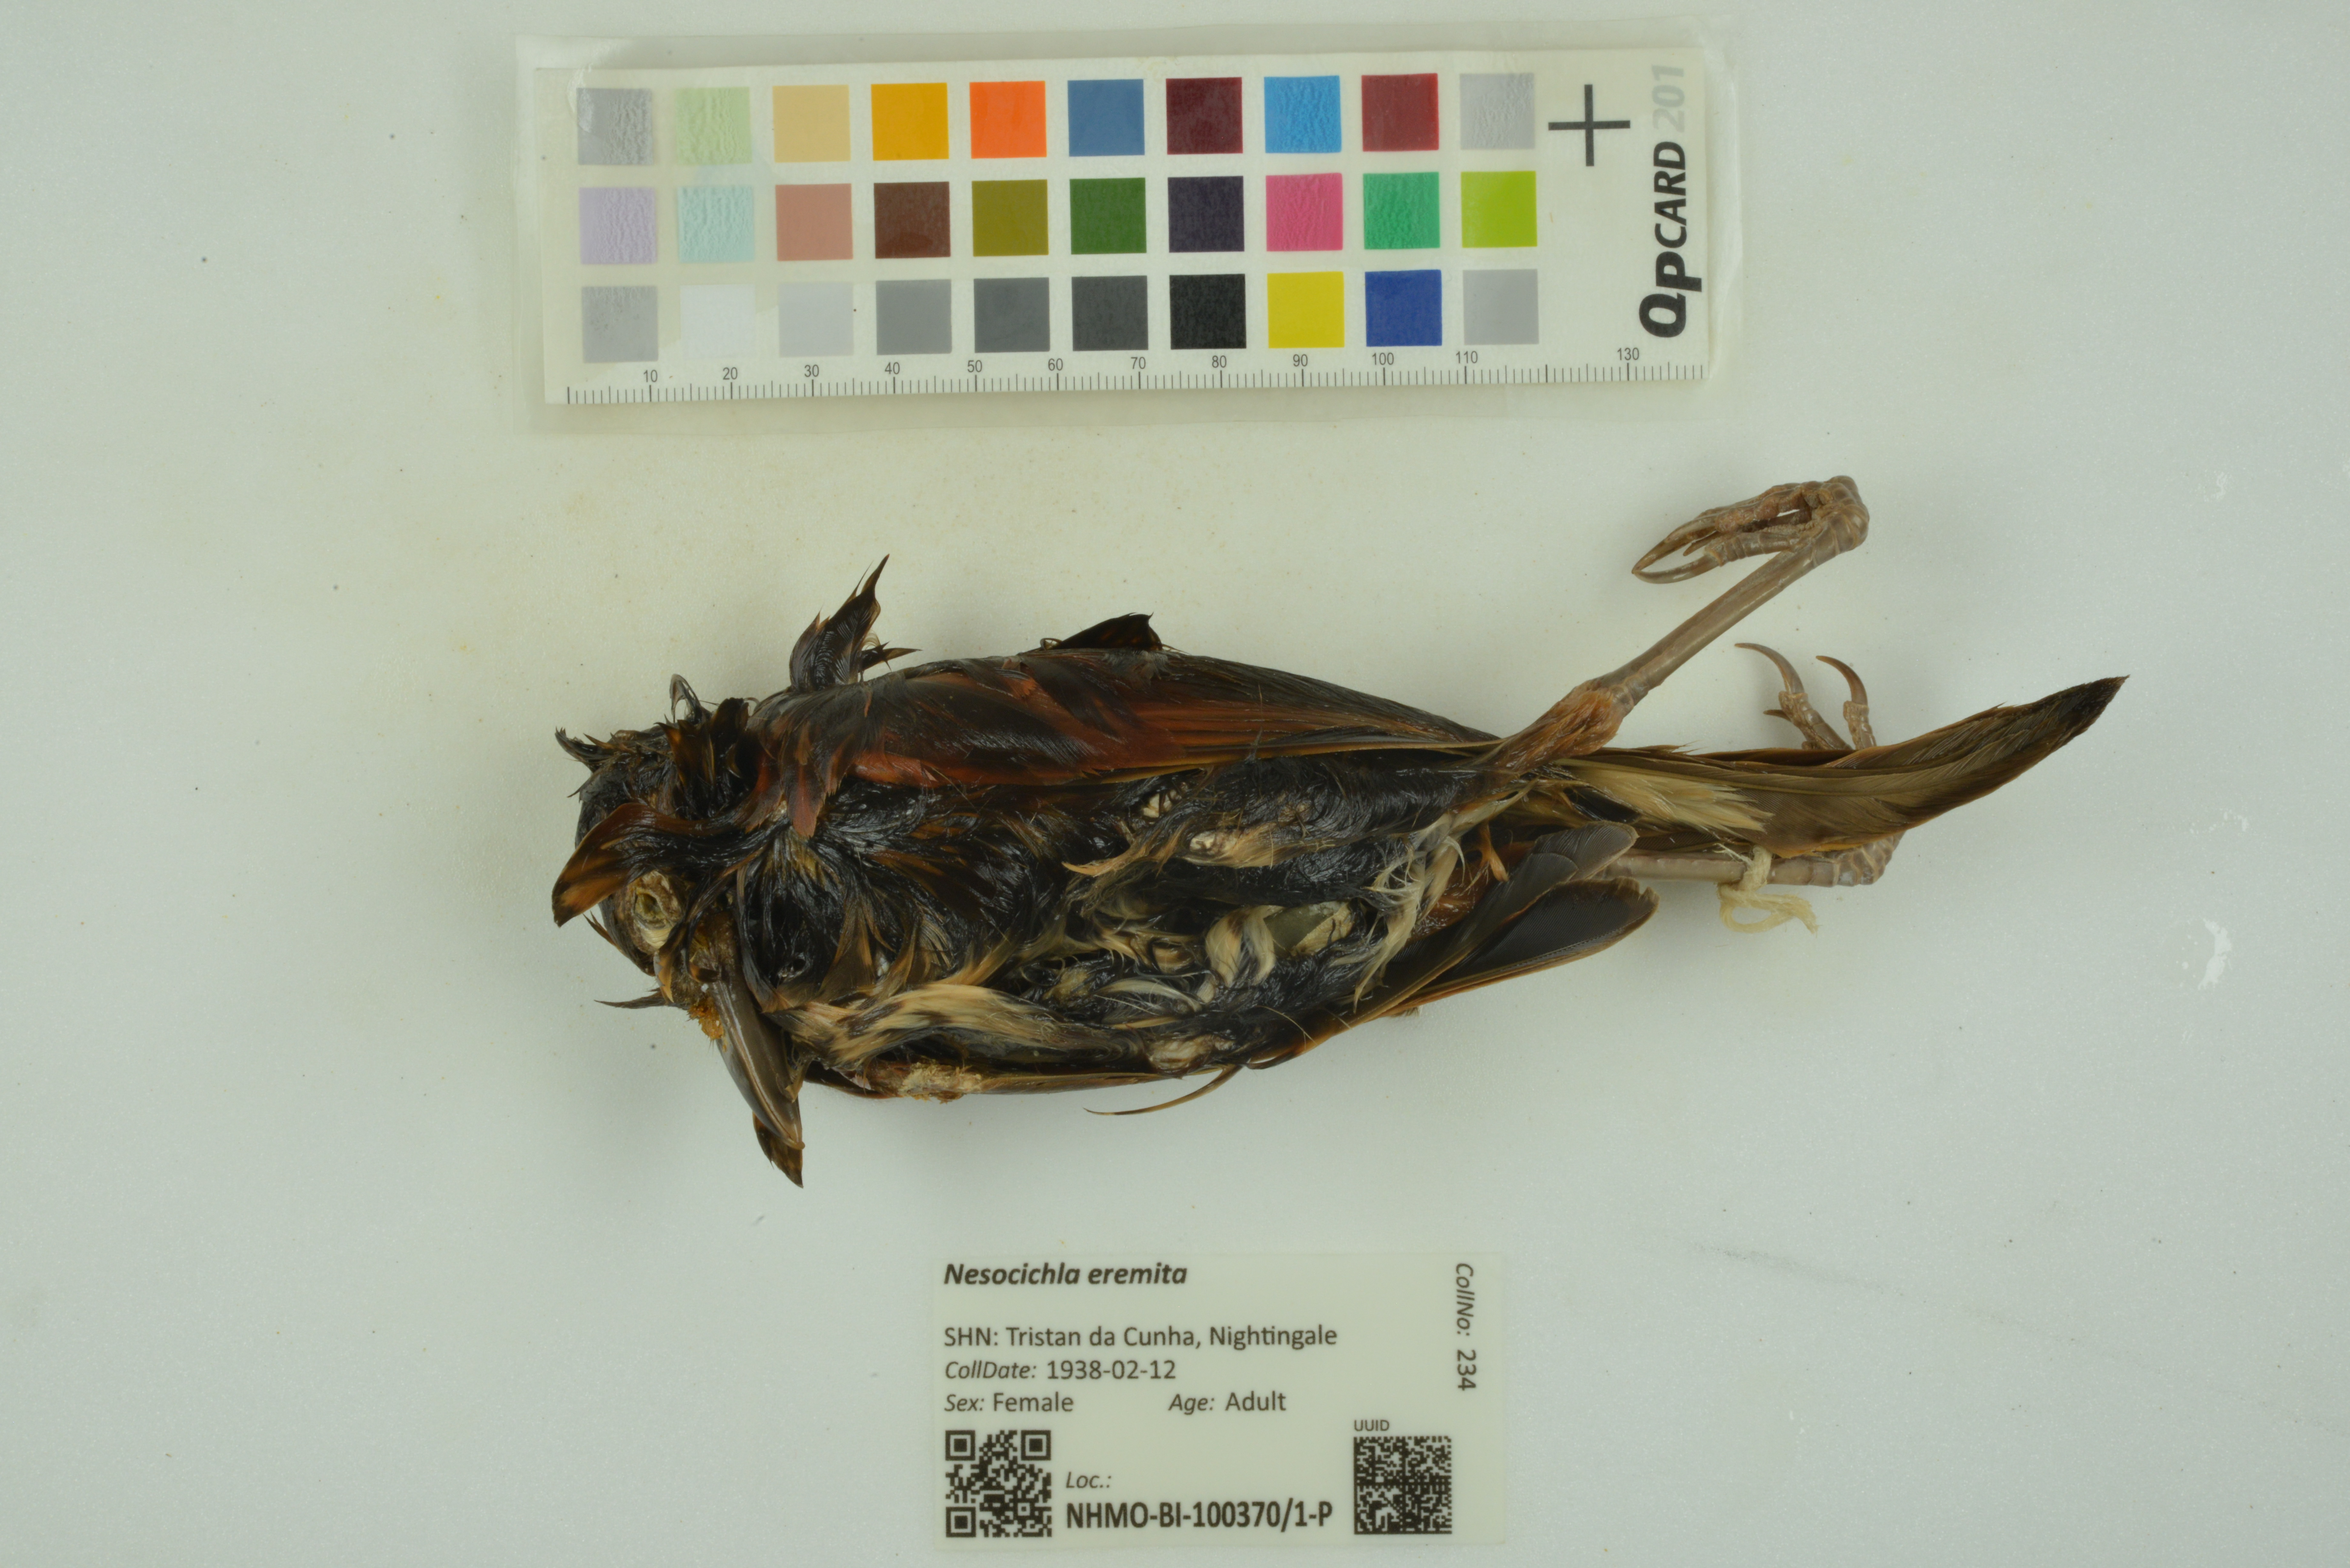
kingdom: Animalia
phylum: Chordata
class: Aves
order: Passeriformes
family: Turdidae
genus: Nesocichla
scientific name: Nesocichla eremita
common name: Tristan thrush
